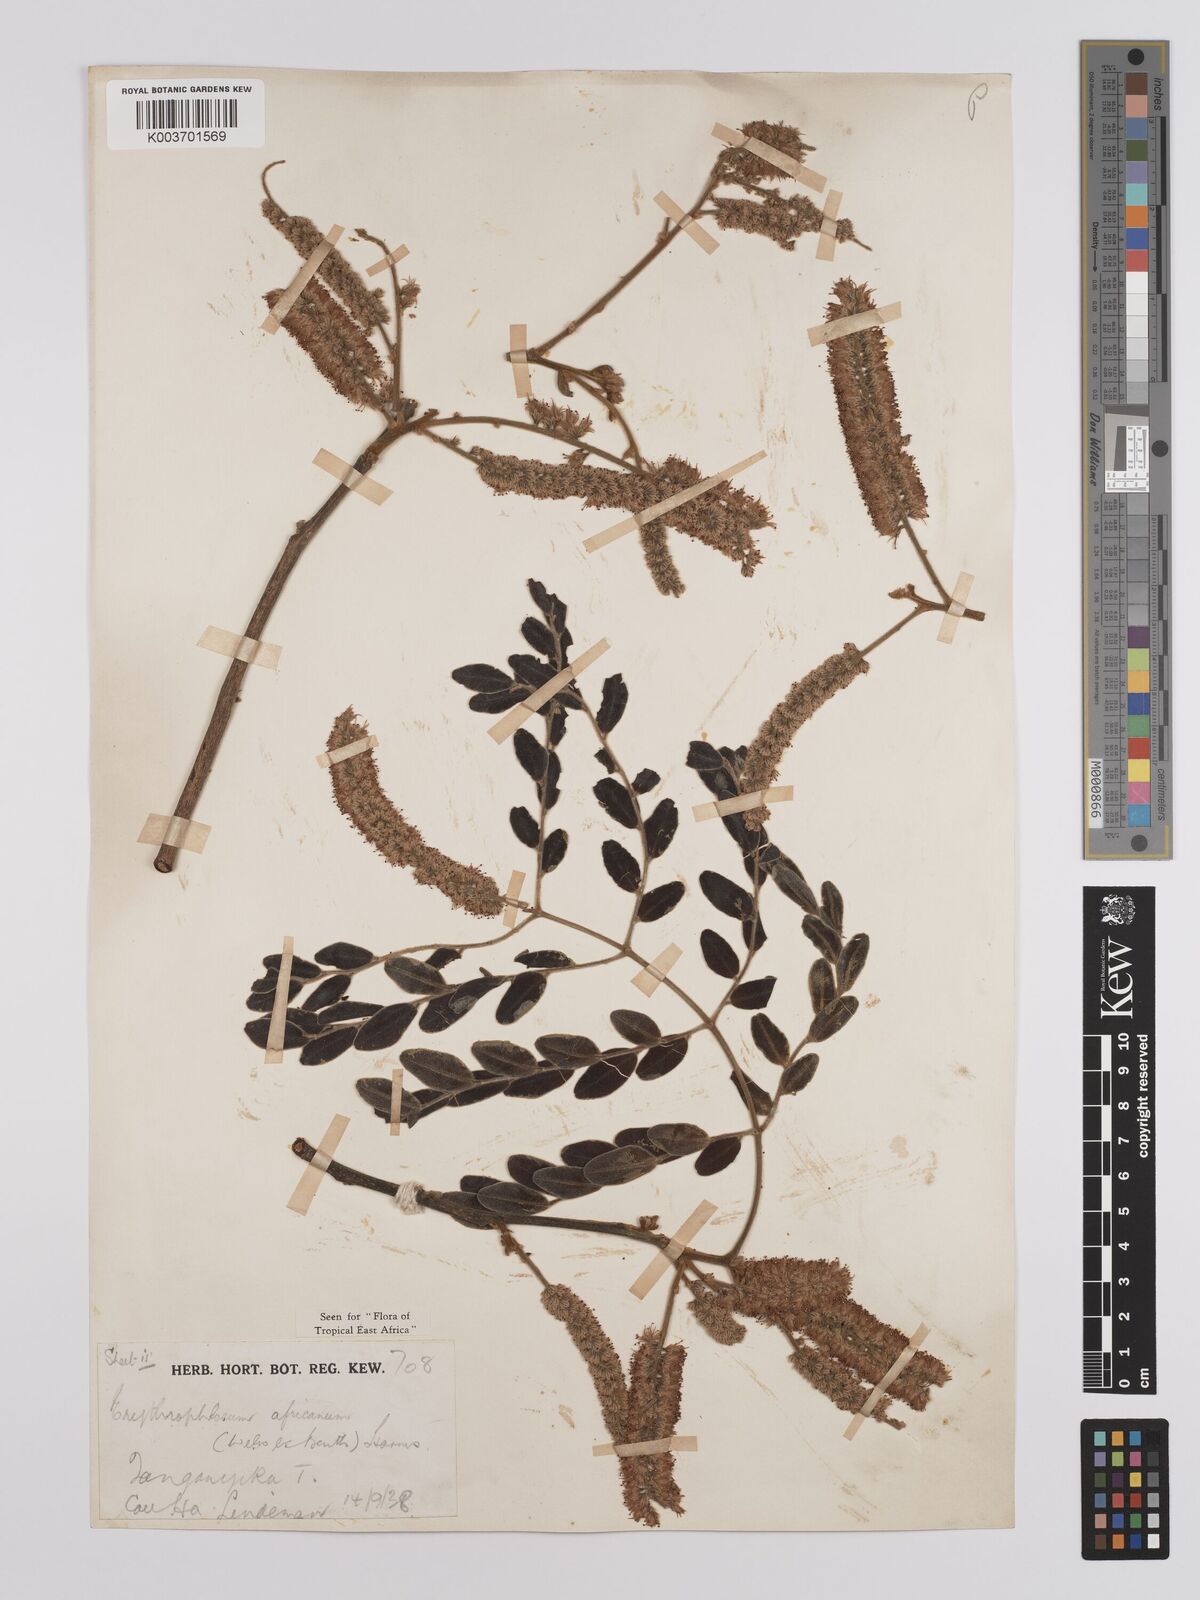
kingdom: Plantae
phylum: Tracheophyta
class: Magnoliopsida
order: Fabales
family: Fabaceae
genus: Erythrophleum
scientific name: Erythrophleum africanum
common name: African blackwood
